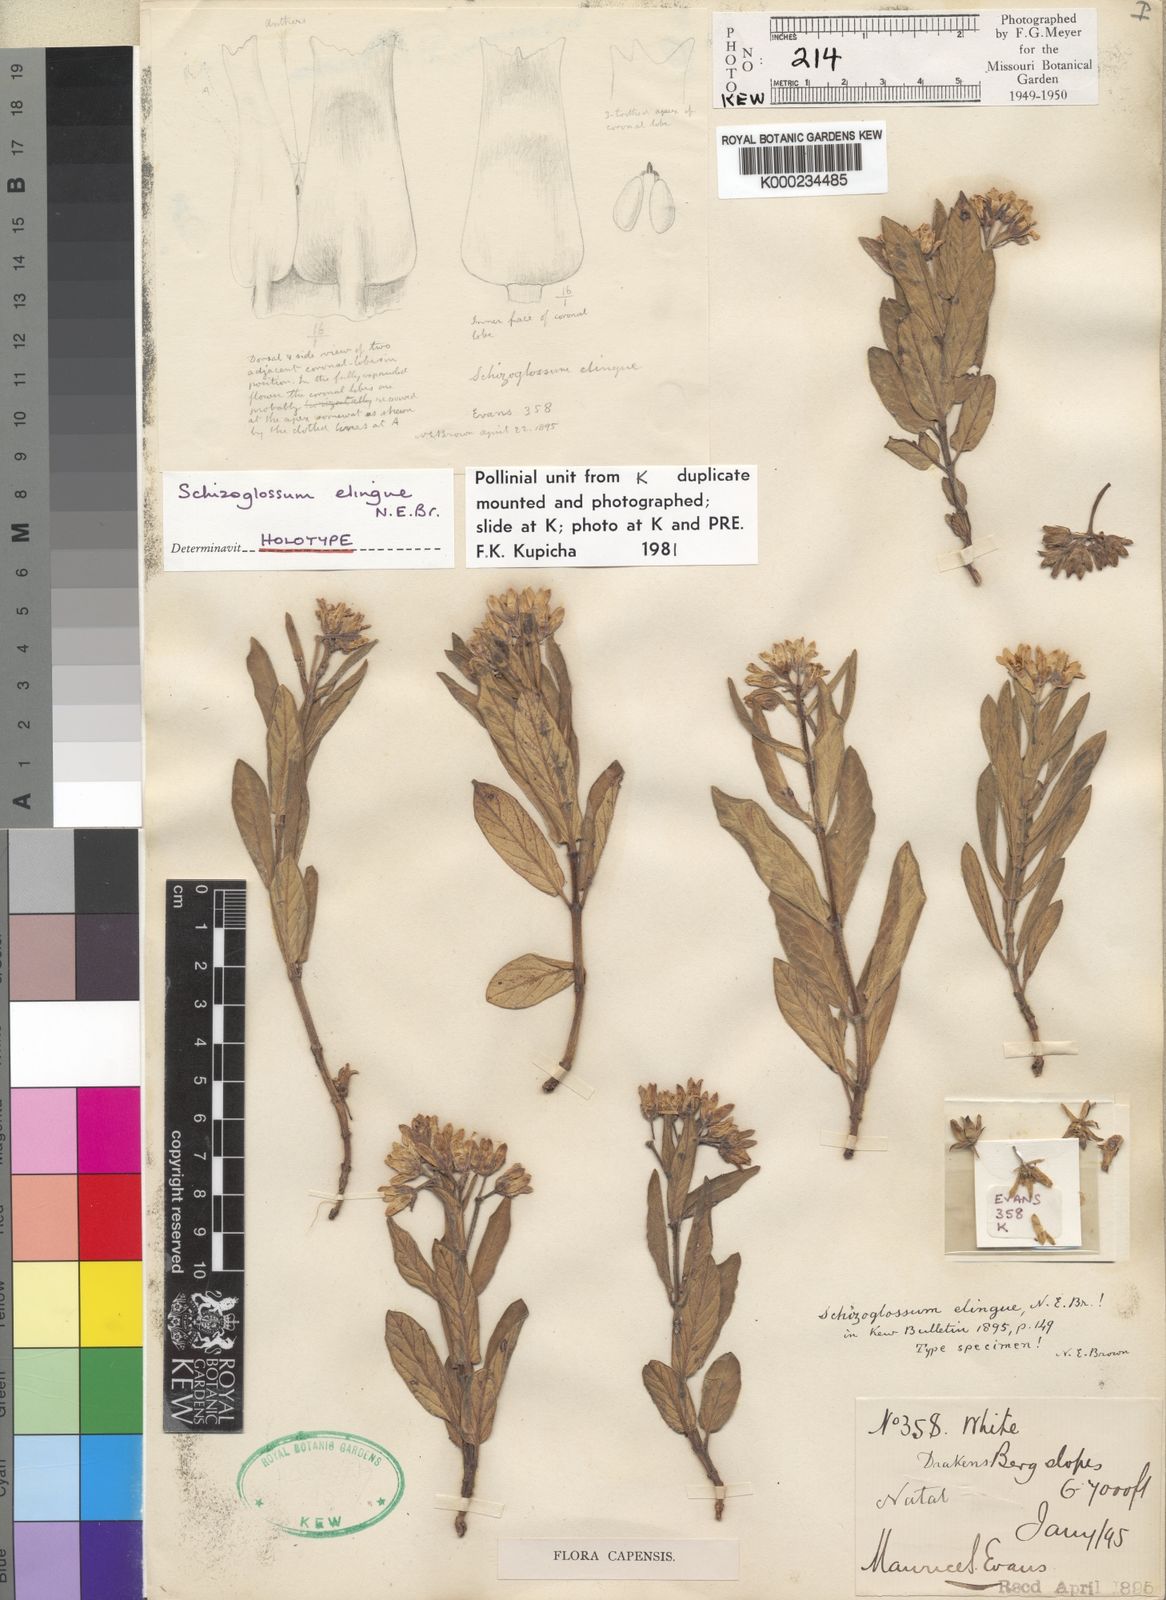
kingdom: Plantae
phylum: Tracheophyta
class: Magnoliopsida
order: Gentianales
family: Apocynaceae
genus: Schizoglossum
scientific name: Schizoglossum elingue
